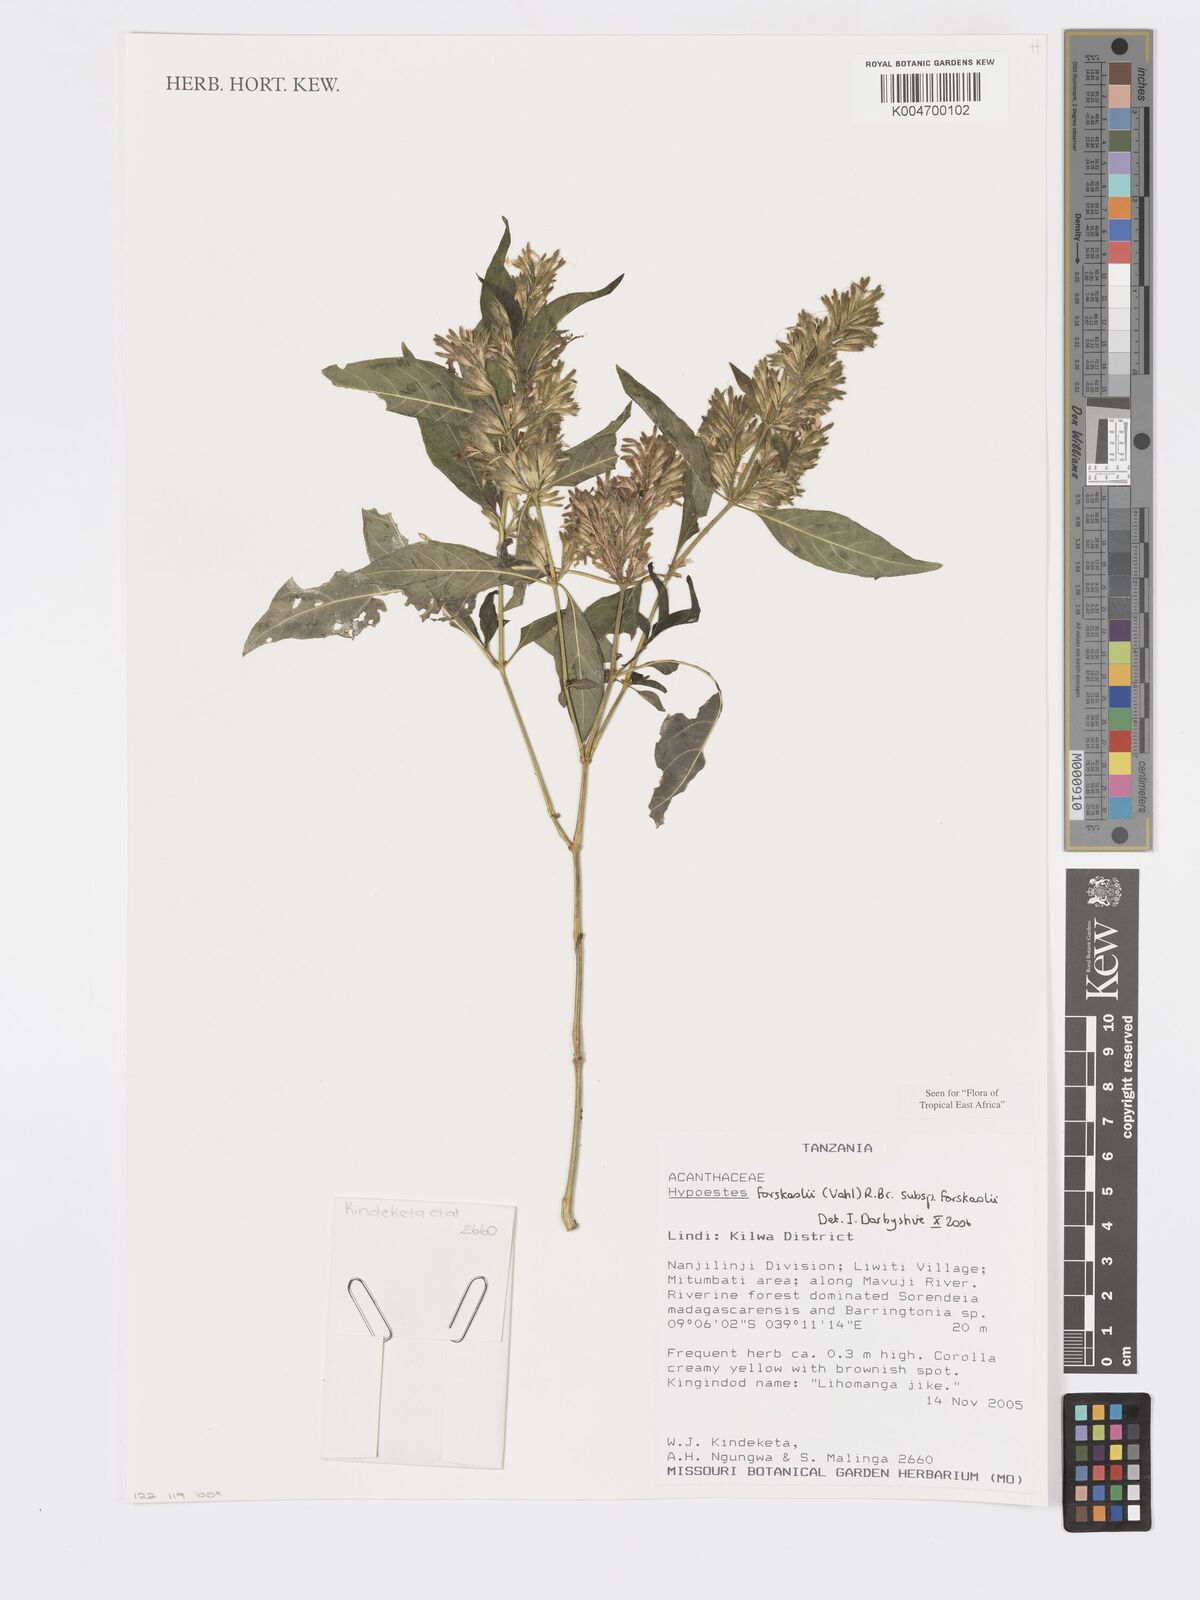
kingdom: Plantae
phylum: Tracheophyta
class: Magnoliopsida
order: Lamiales
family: Acanthaceae
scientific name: Acanthaceae
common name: Acanthaceae
